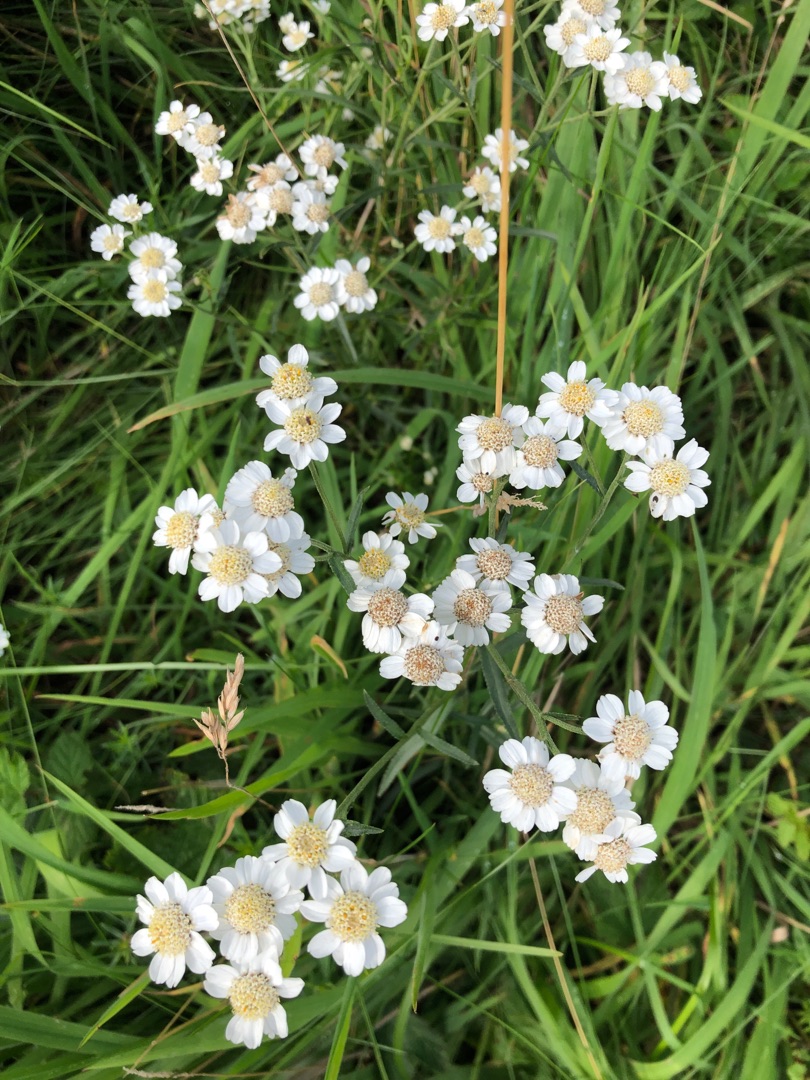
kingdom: Plantae
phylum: Tracheophyta
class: Magnoliopsida
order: Asterales
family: Asteraceae
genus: Achillea
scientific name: Achillea ptarmica
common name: Nyse-røllike
